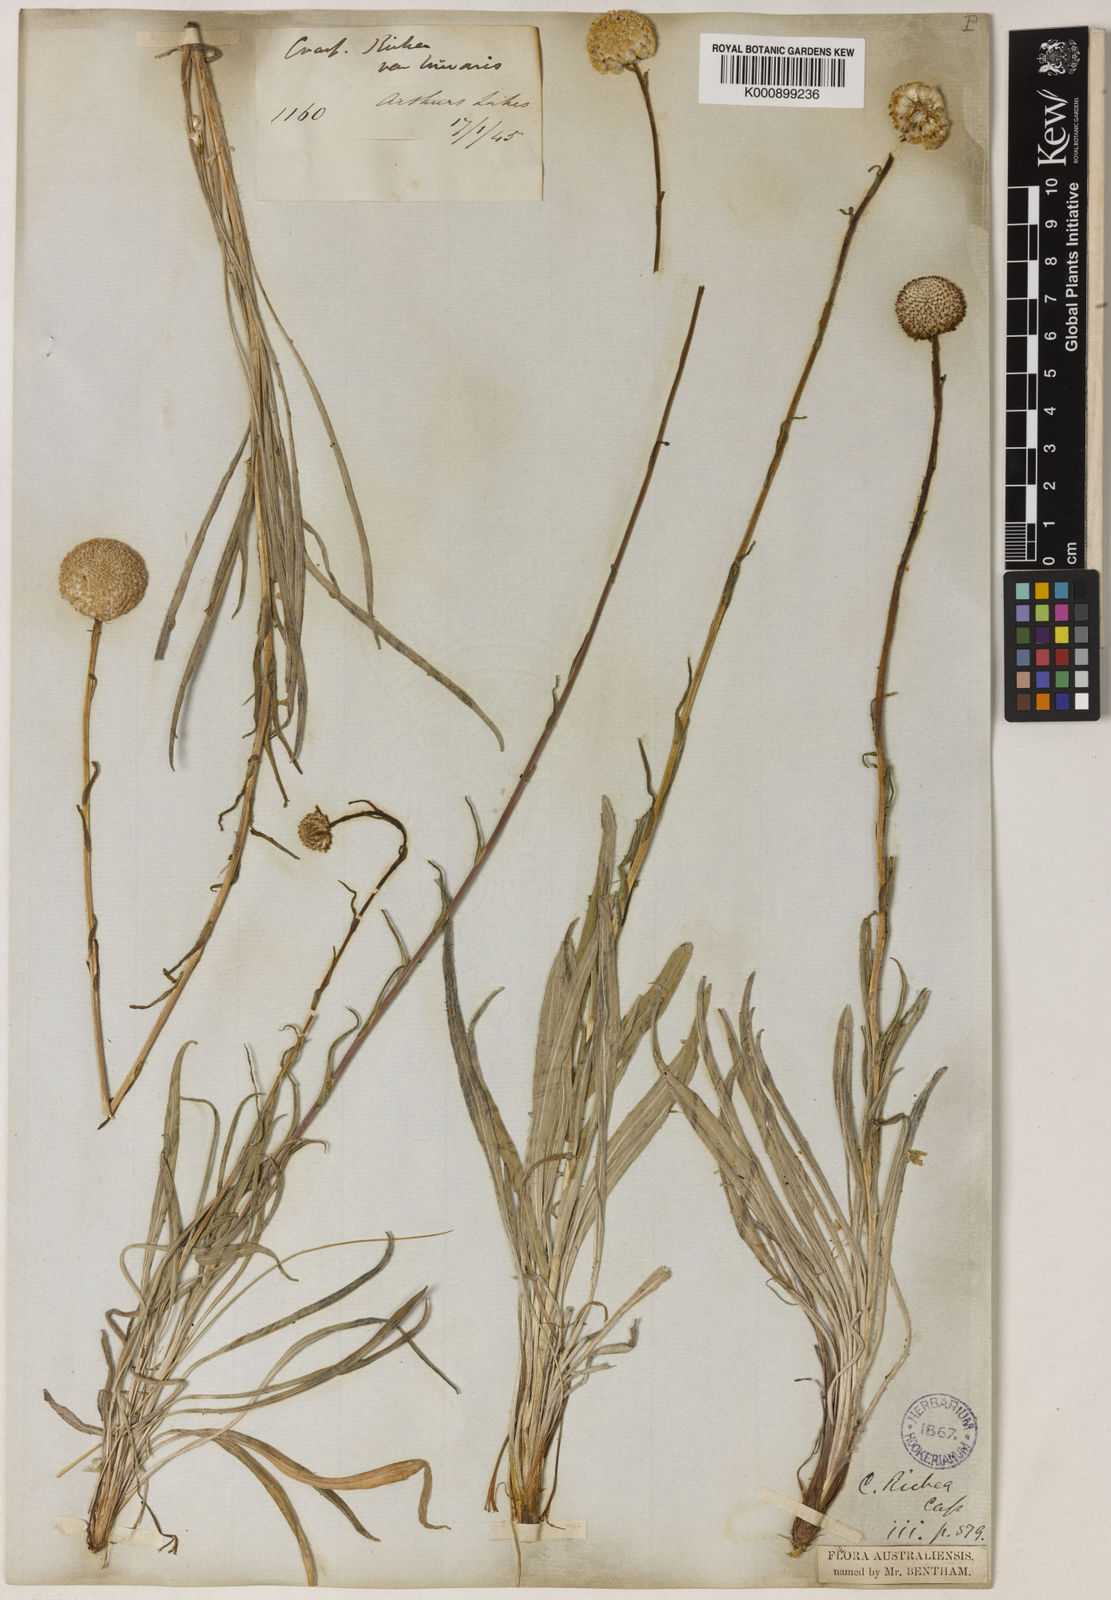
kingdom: Plantae
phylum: Tracheophyta
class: Magnoliopsida
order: Asterales
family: Asteraceae
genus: Craspedia
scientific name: Craspedia glauca
